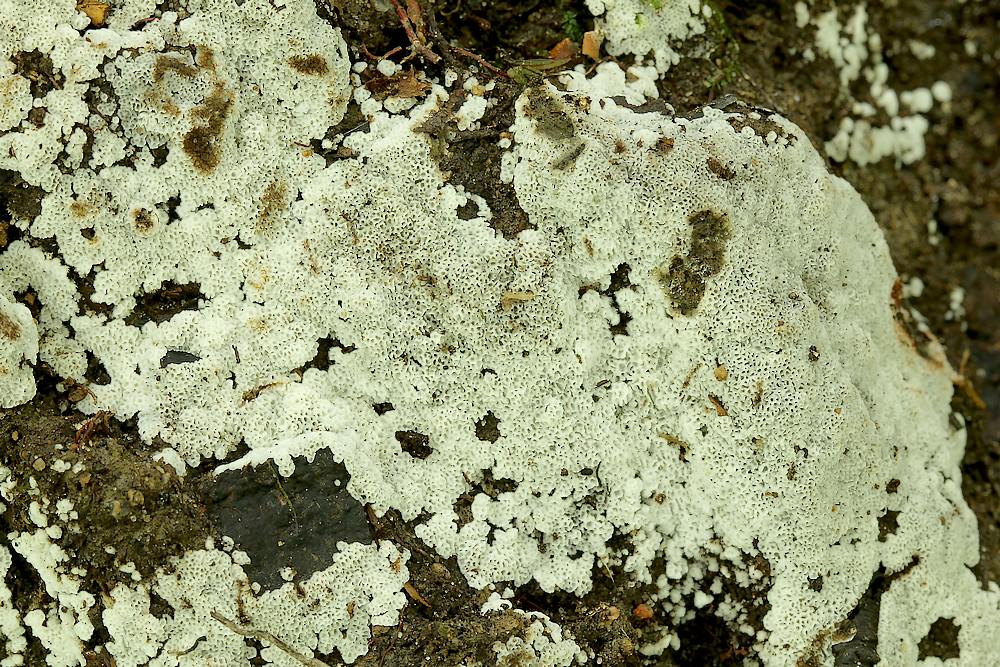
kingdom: Fungi
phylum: Basidiomycota
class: Agaricomycetes
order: Polyporales
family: Meruliaceae
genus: Physisporinus
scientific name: Physisporinus
